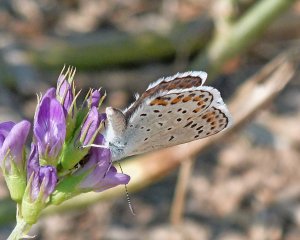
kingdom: Animalia
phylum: Arthropoda
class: Insecta
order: Lepidoptera
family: Lycaenidae
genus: Lycaeides
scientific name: Lycaeides melissa
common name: Melissa Blue
